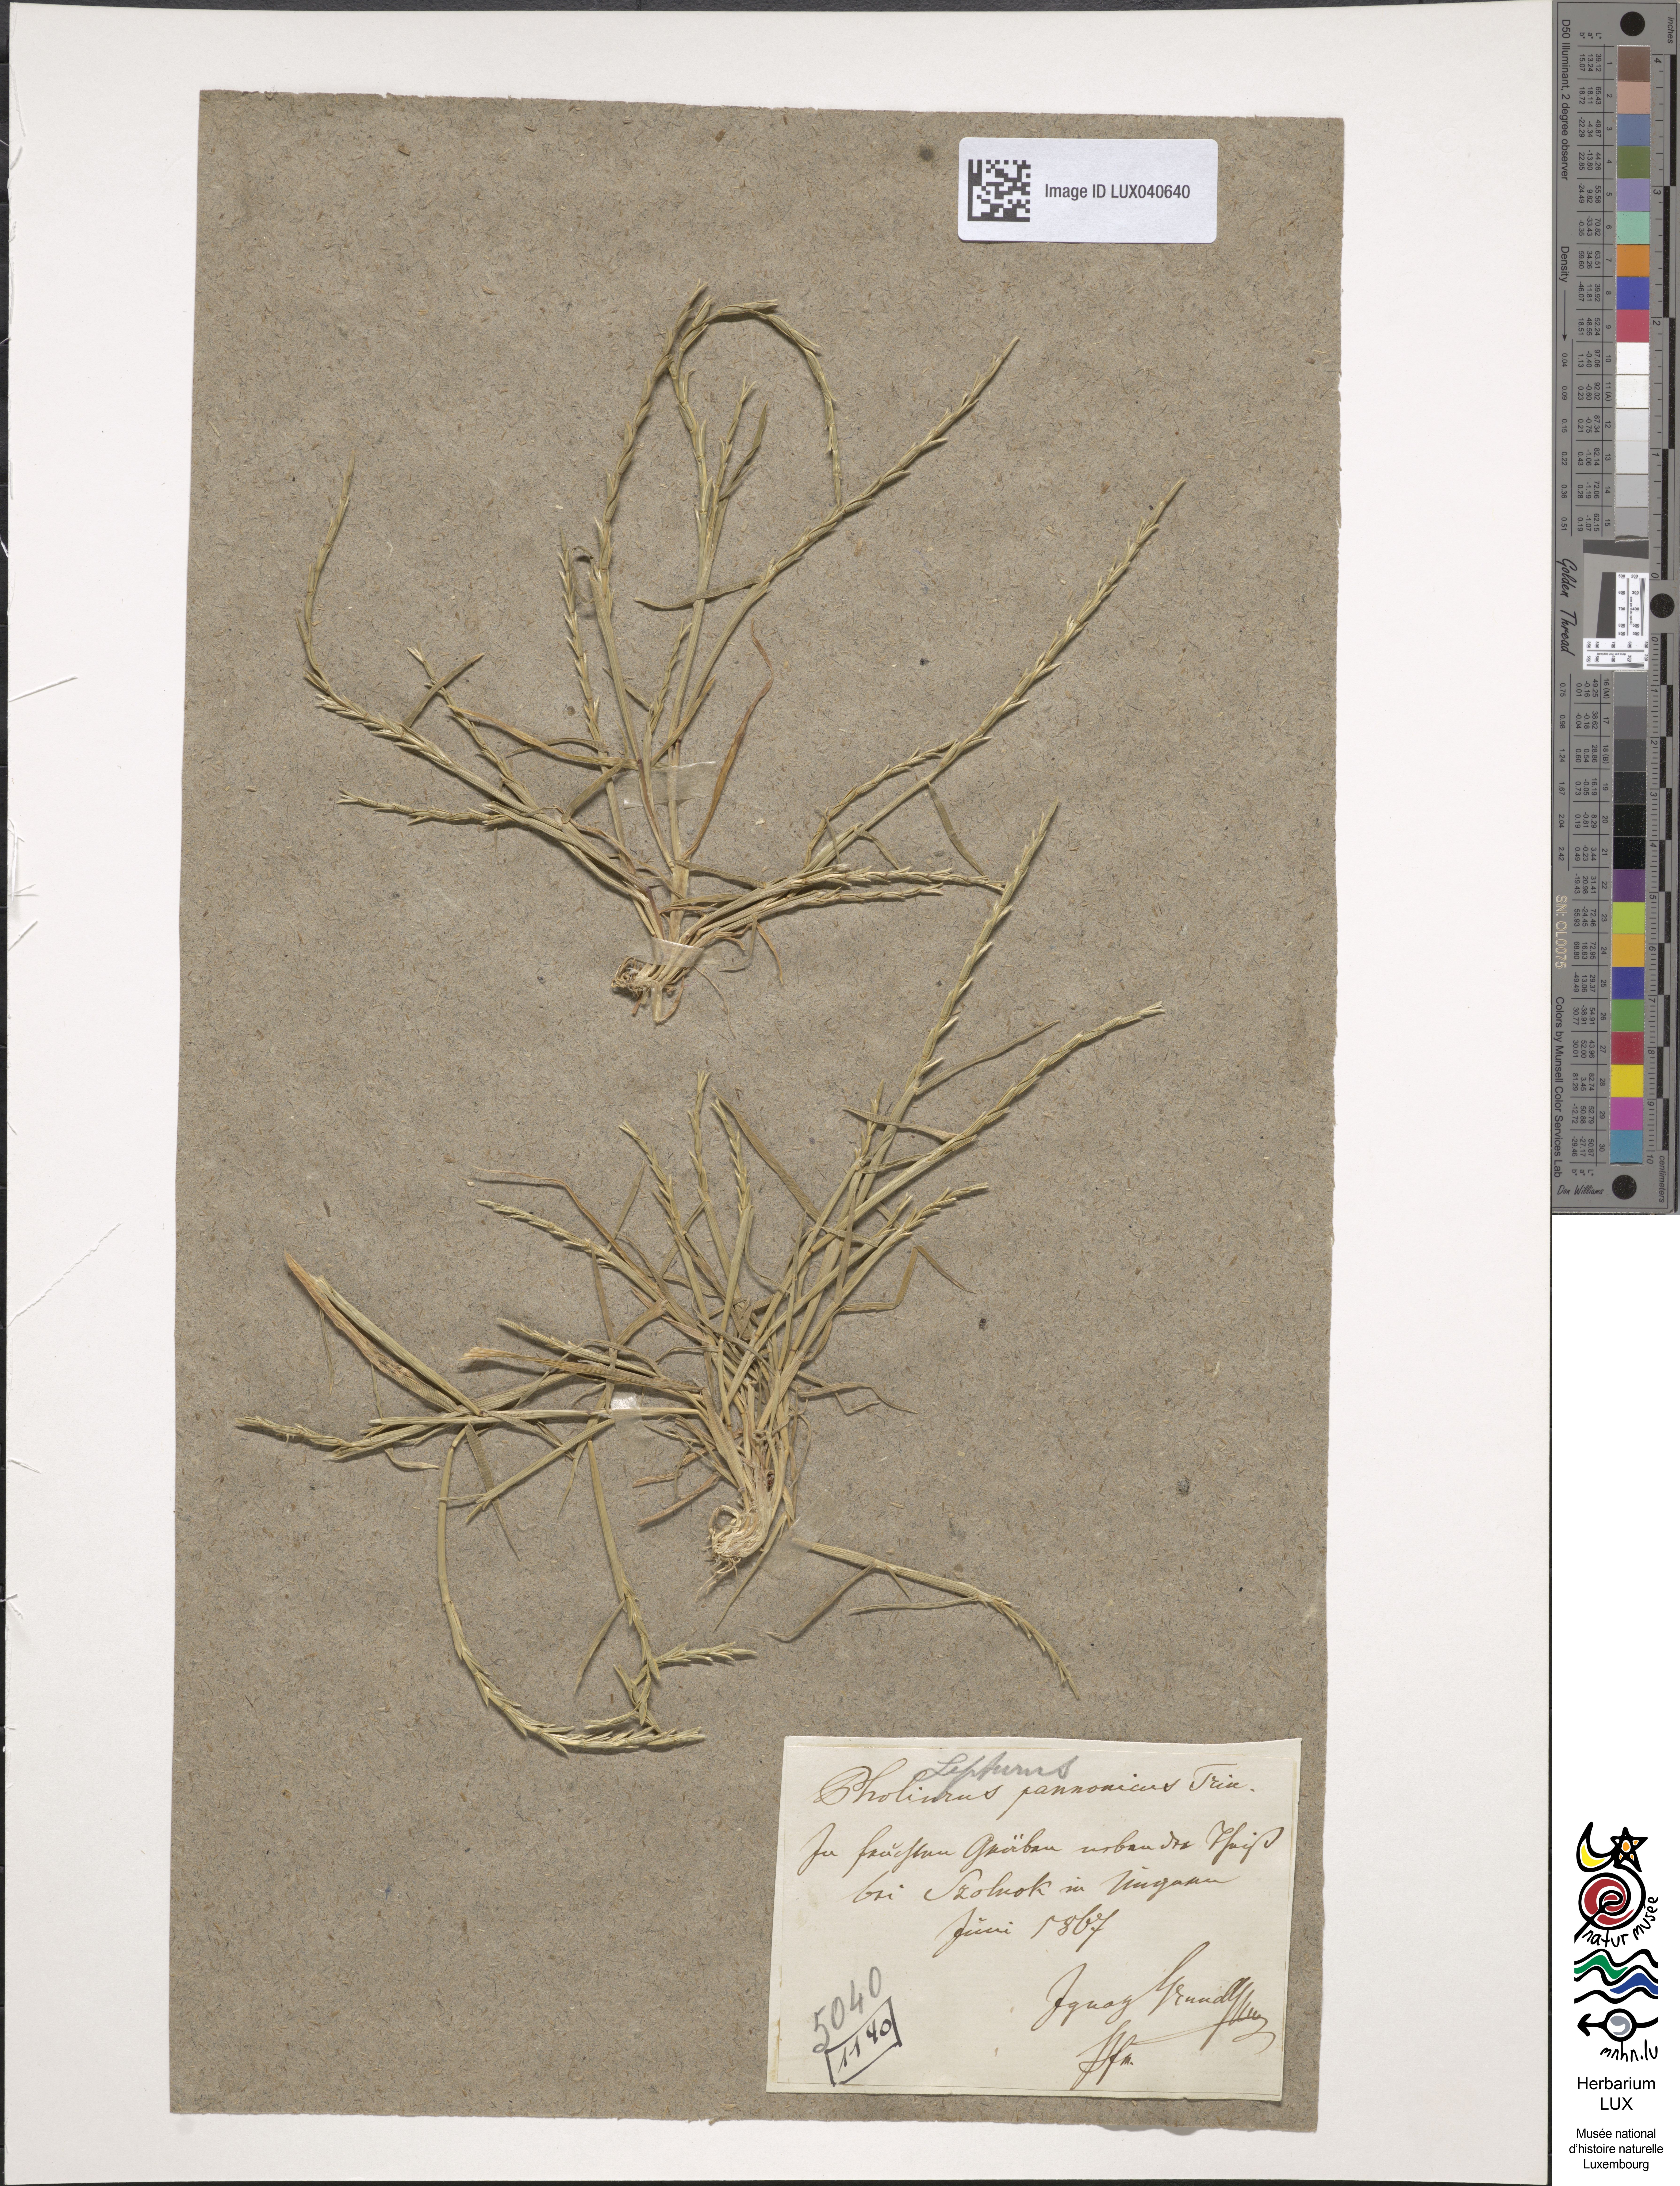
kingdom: Plantae
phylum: Tracheophyta
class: Liliopsida
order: Poales
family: Poaceae
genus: Pholiurus
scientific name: Pholiurus pannonicus
